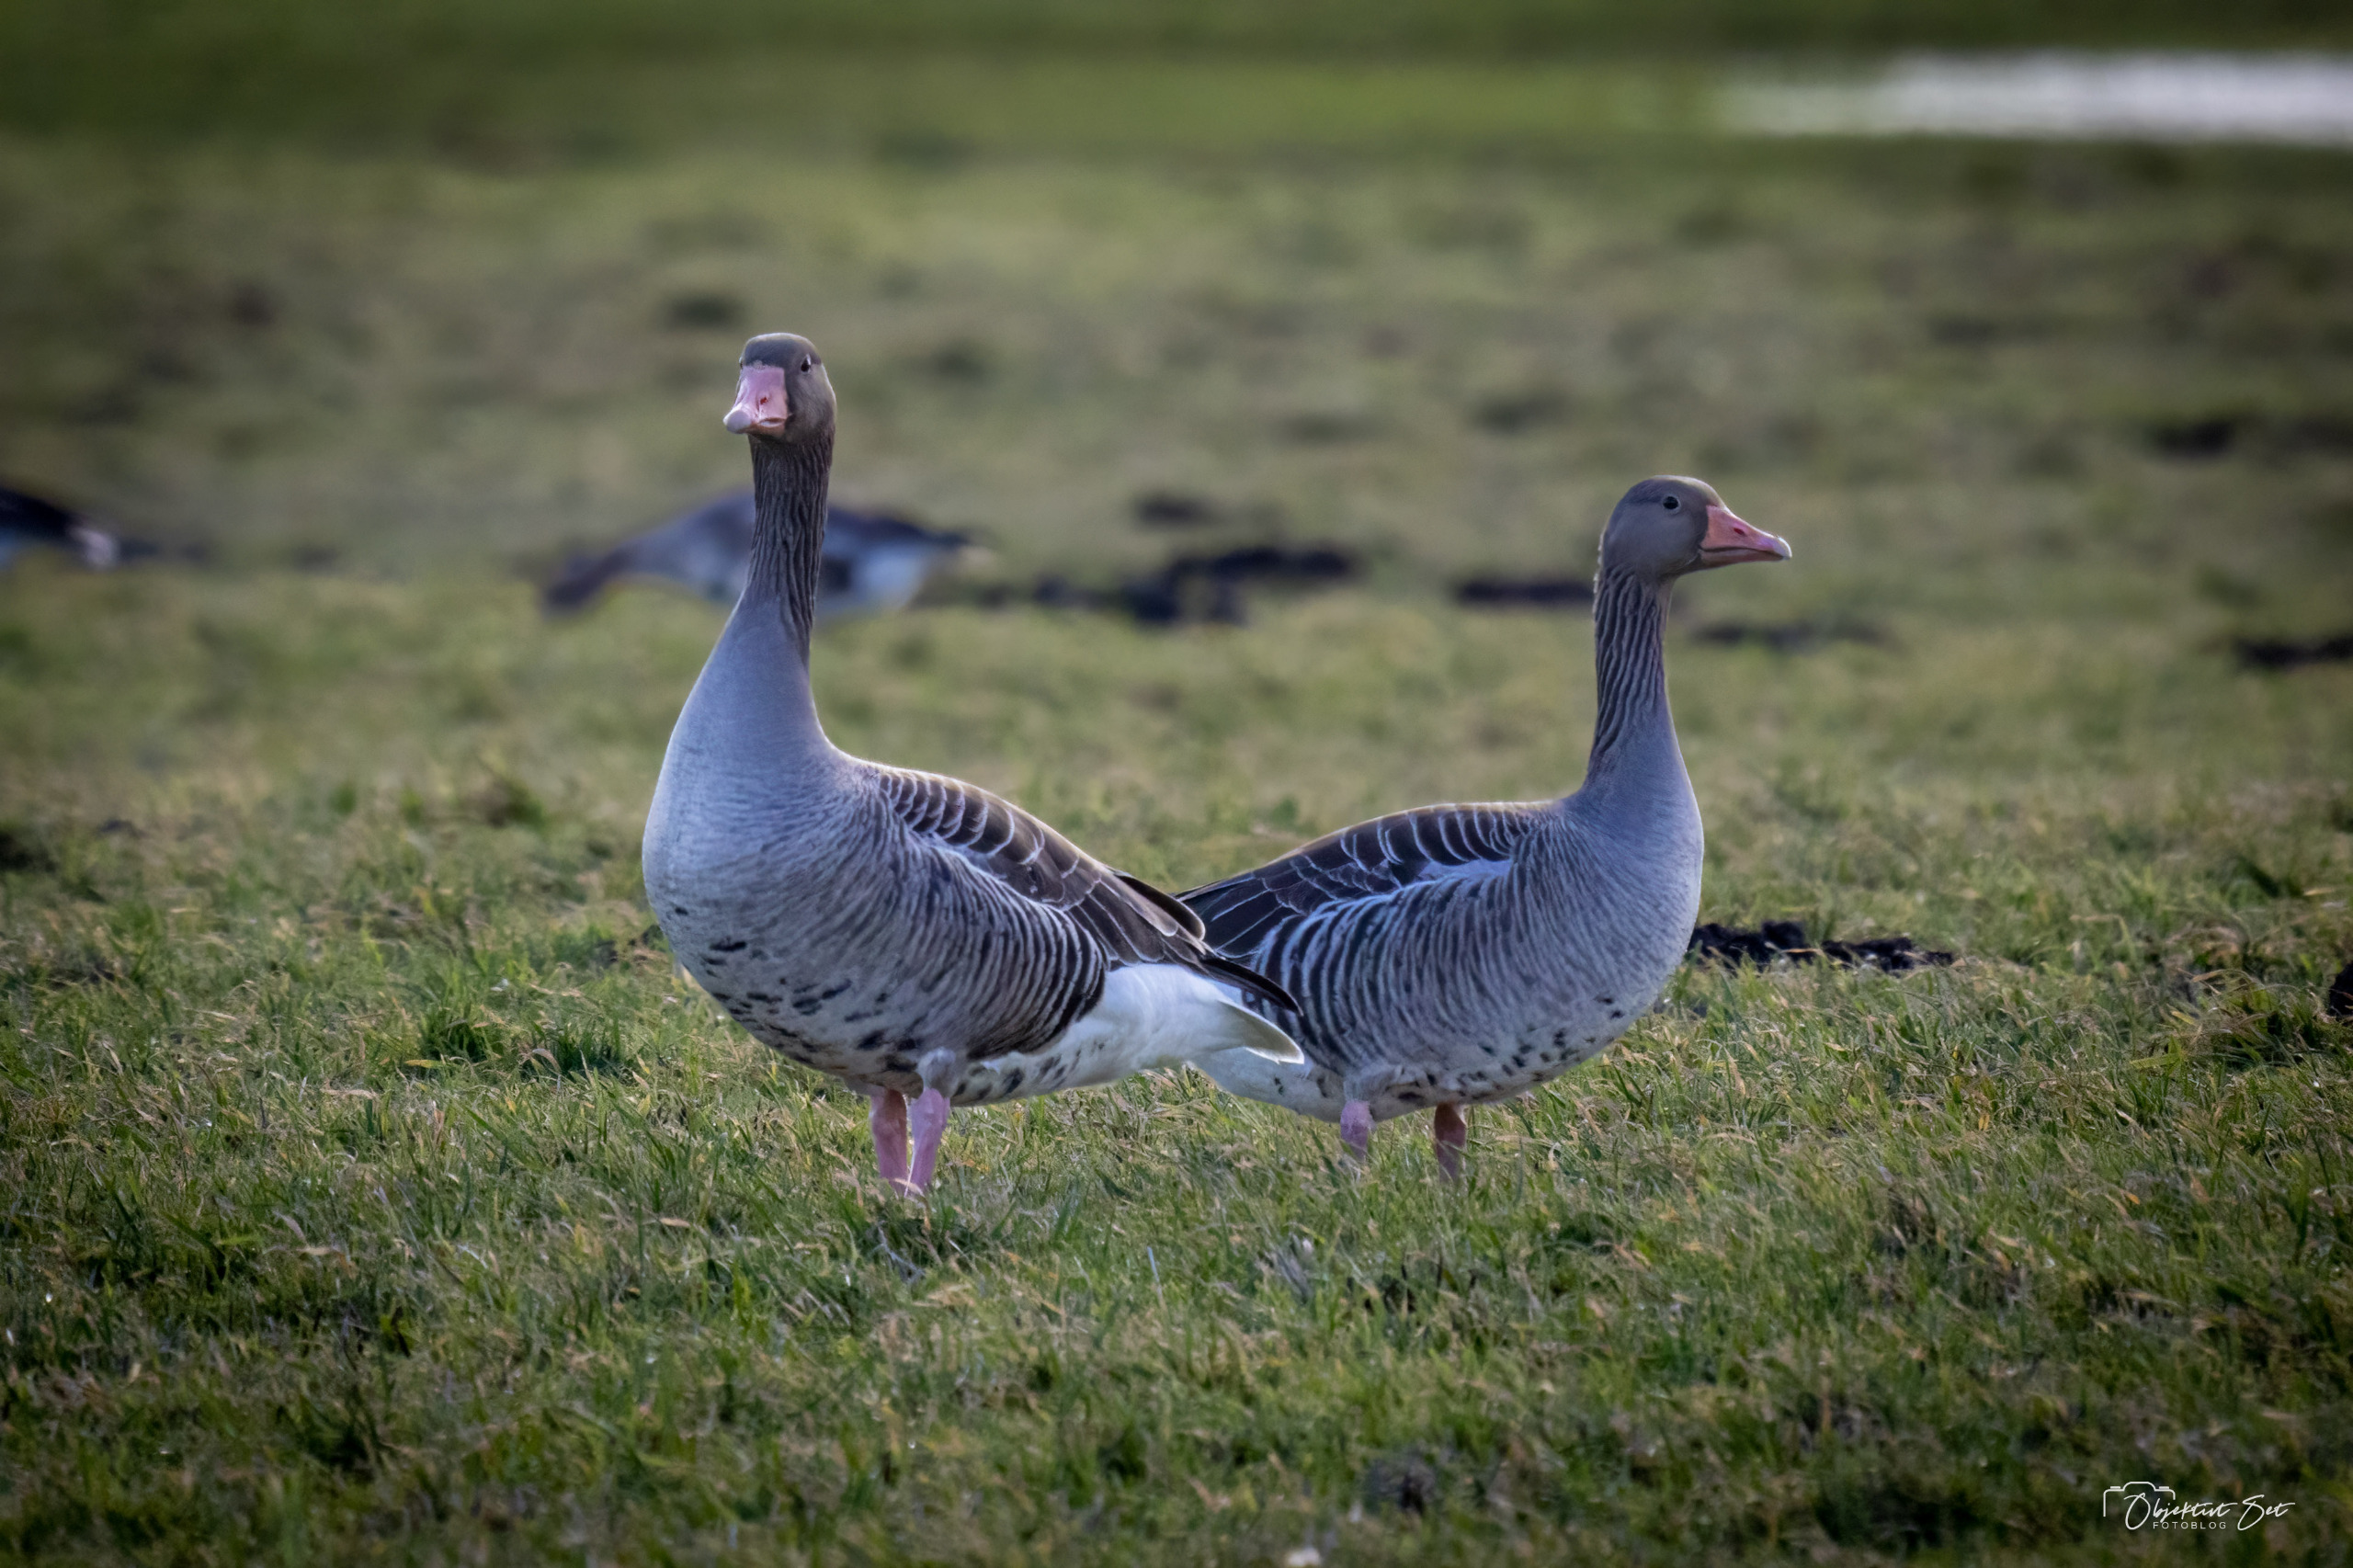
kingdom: Animalia
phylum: Chordata
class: Aves
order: Anseriformes
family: Anatidae
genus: Anser
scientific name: Anser anser
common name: Grågås
